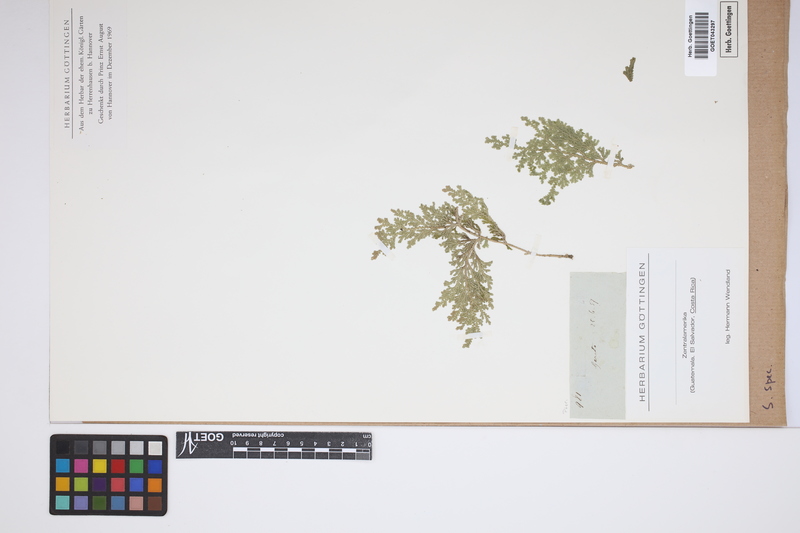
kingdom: Plantae
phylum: Tracheophyta
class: Lycopodiopsida
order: Selaginellales
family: Selaginellaceae
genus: Selaginella
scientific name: Selaginella
